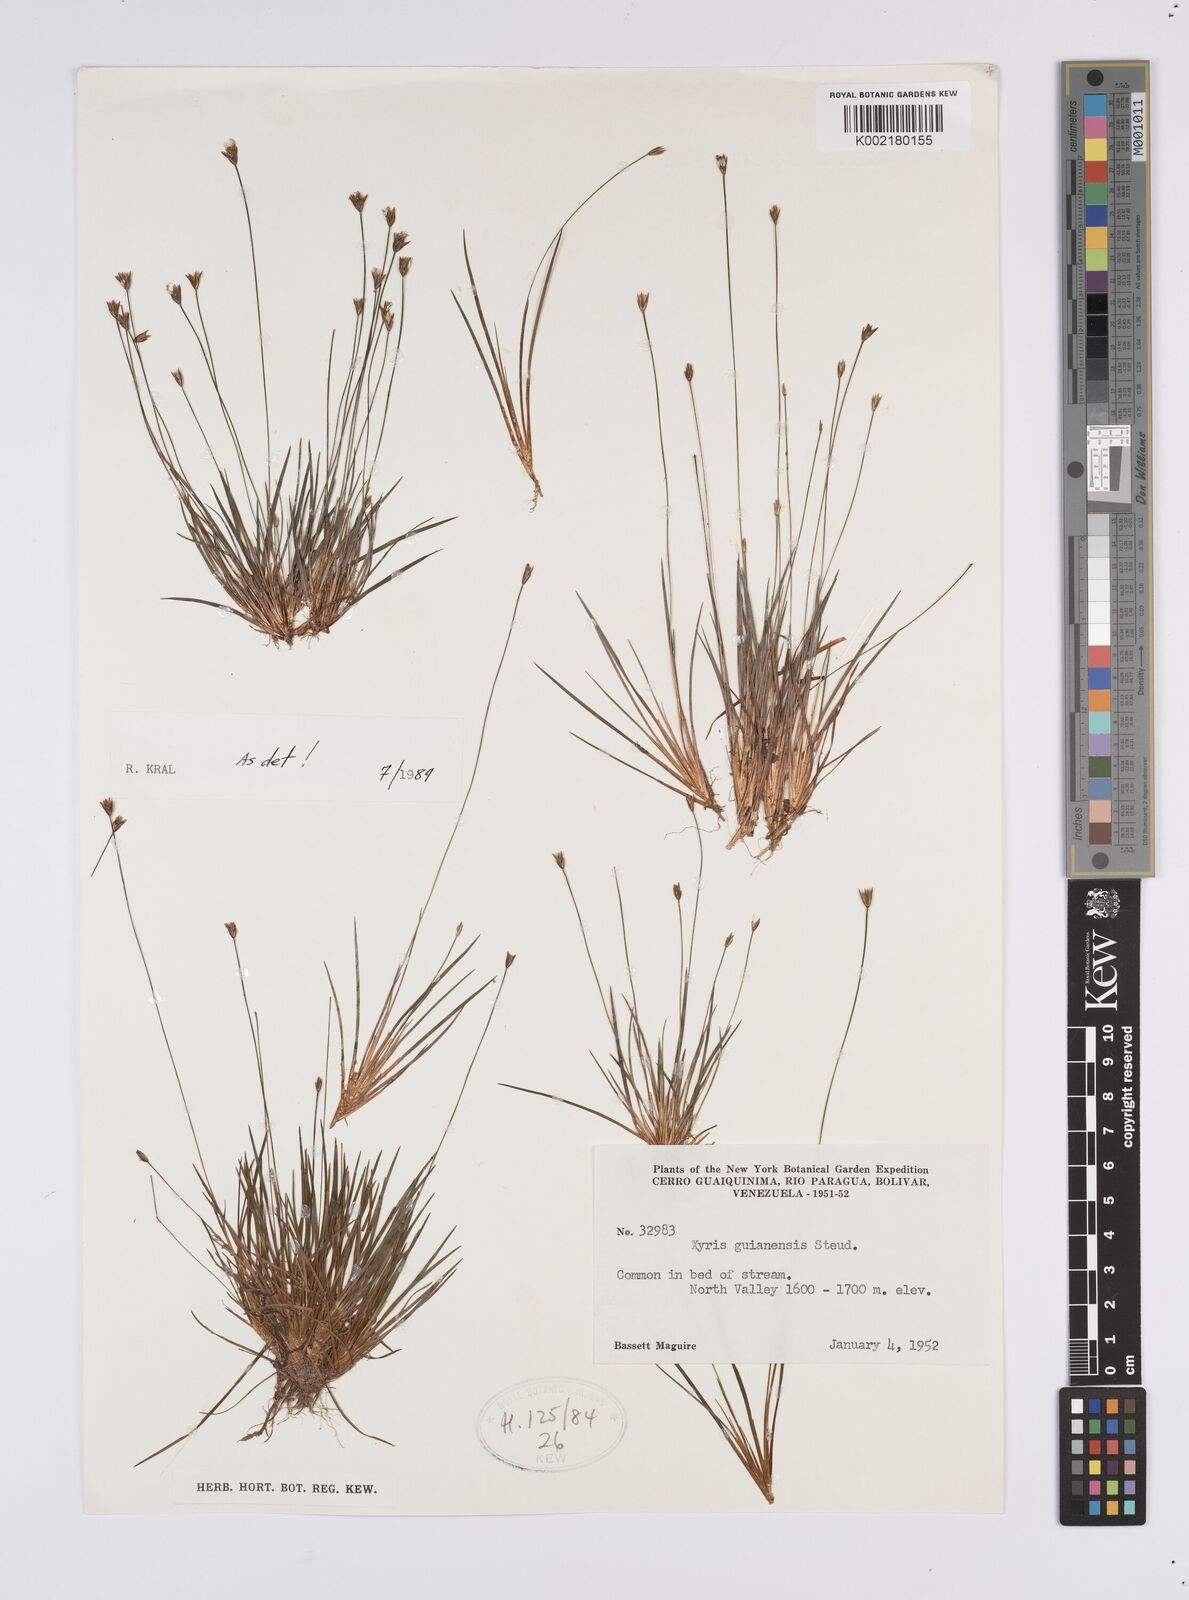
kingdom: Plantae
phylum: Tracheophyta
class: Liliopsida
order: Poales
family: Xyridaceae
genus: Xyris
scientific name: Xyris jupicai
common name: Richard's yelloweyed grass
